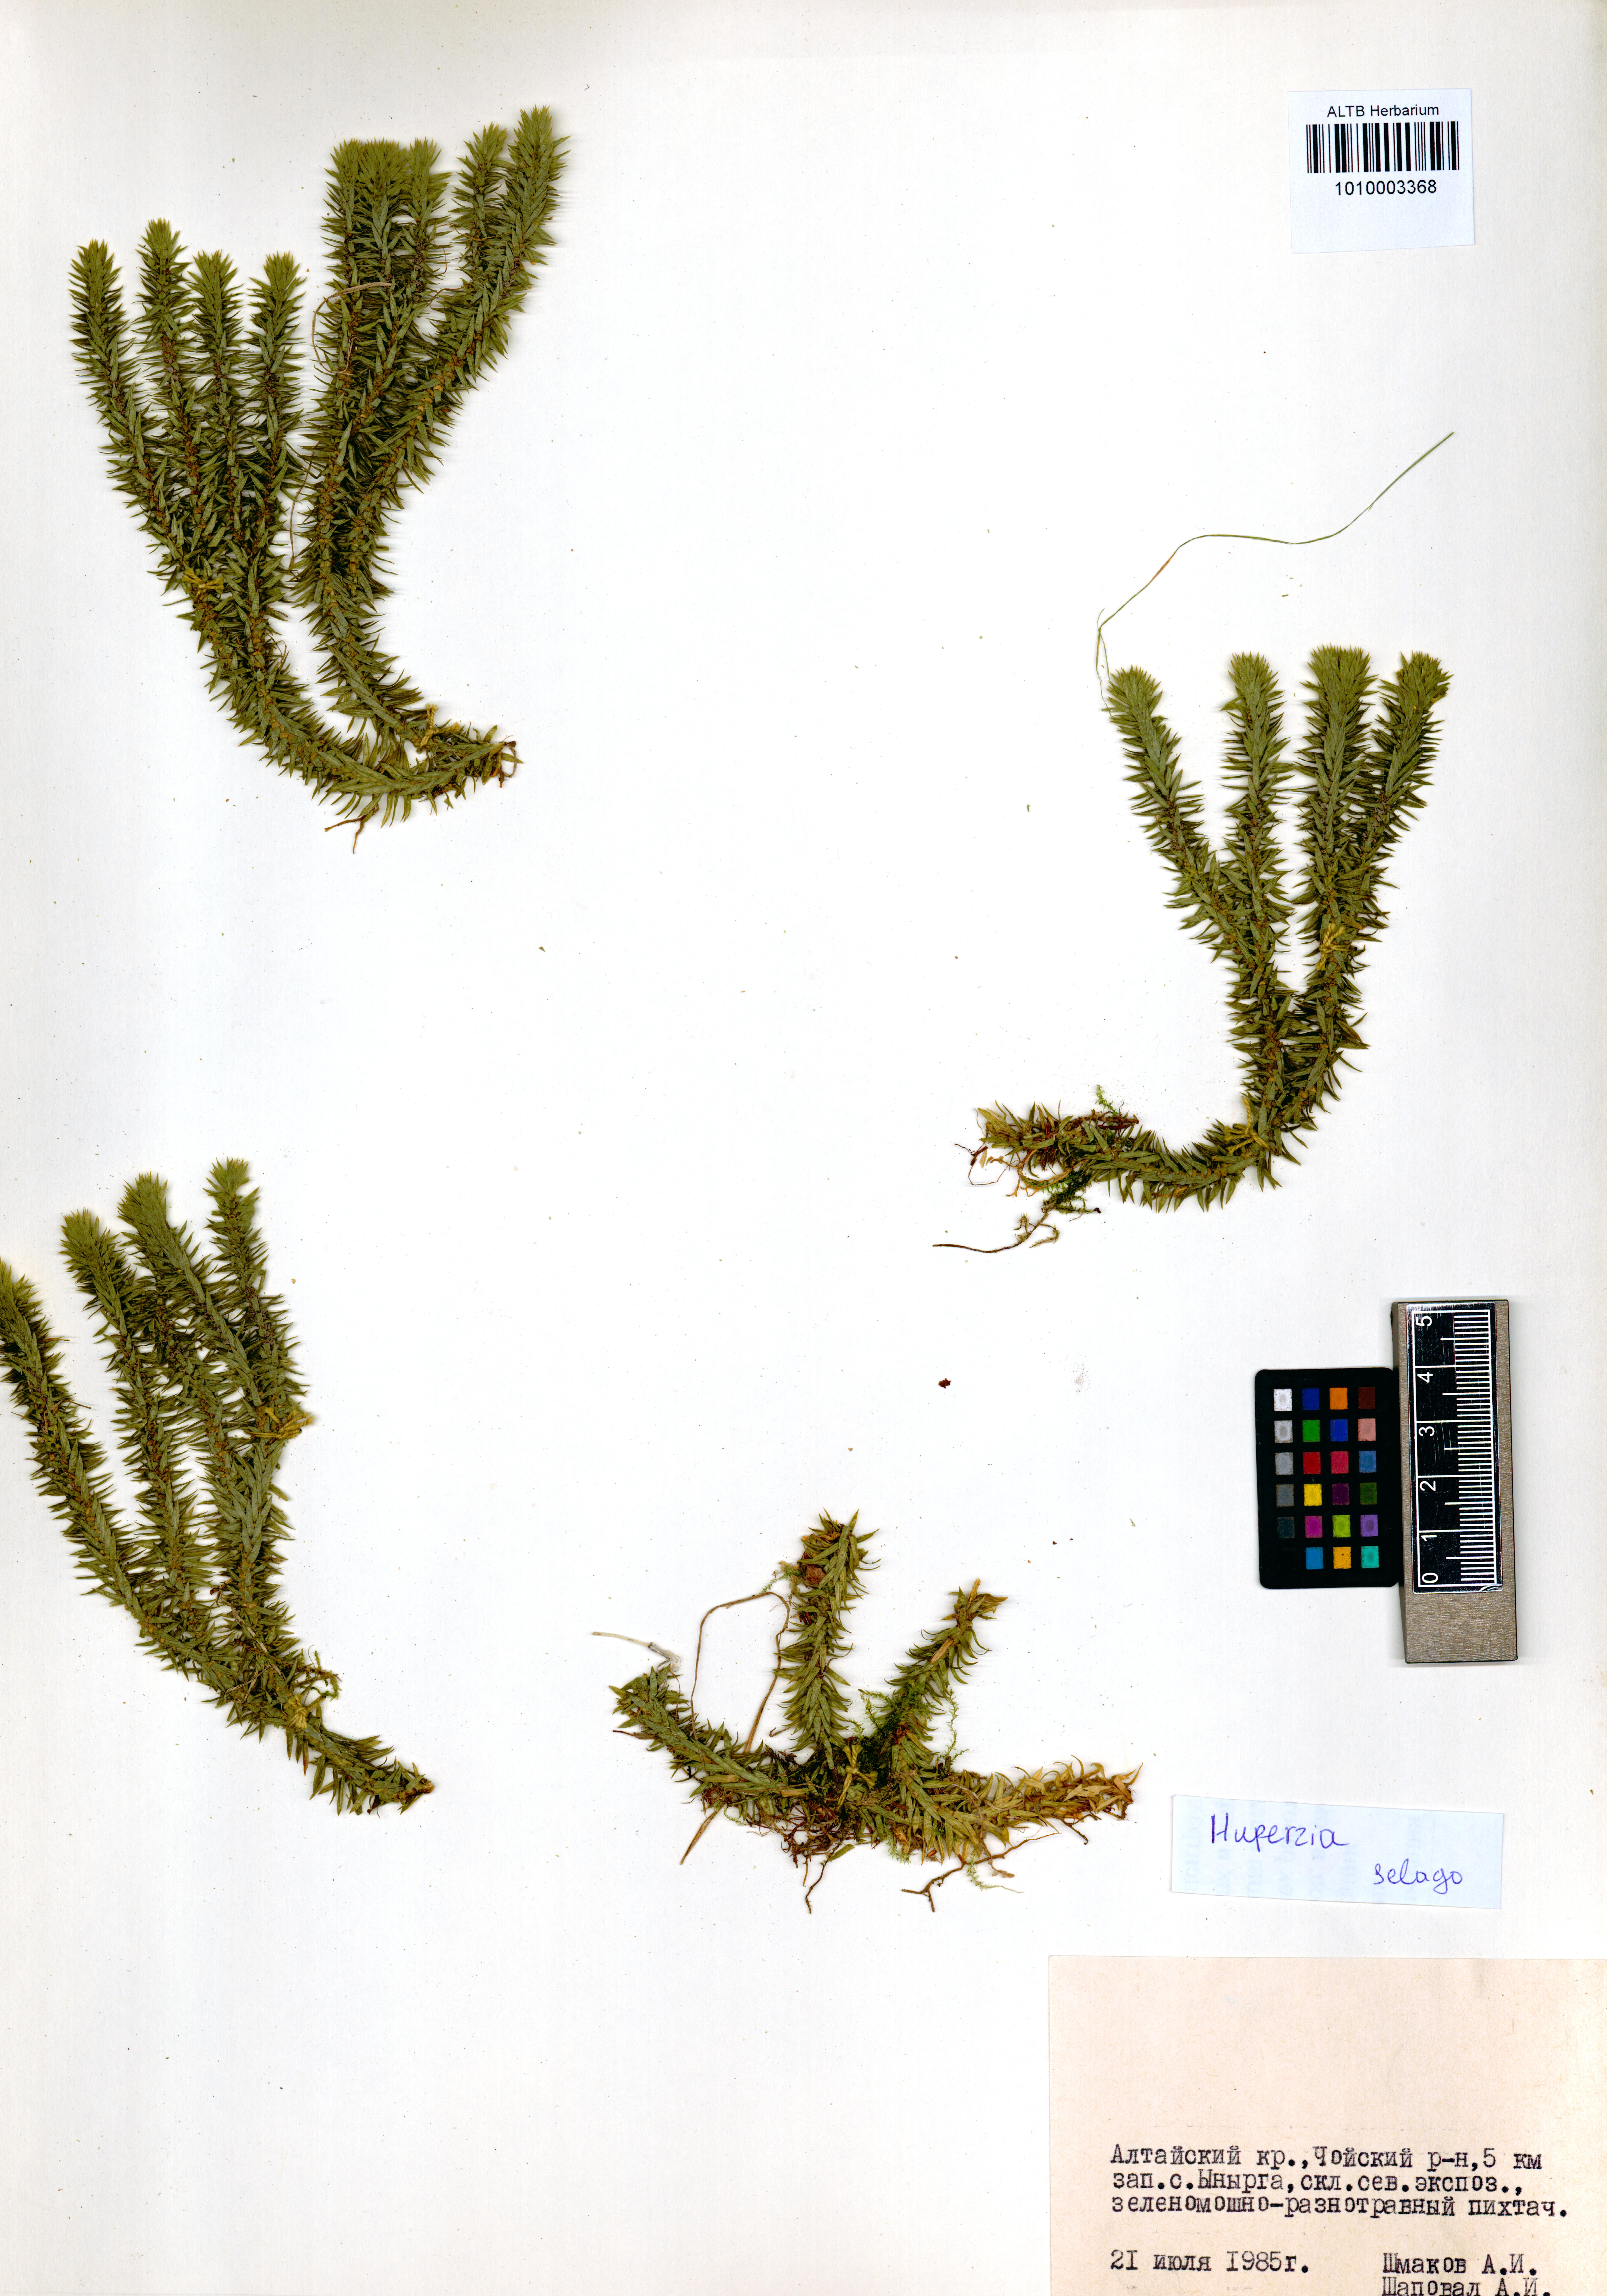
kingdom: Plantae
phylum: Tracheophyta
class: Lycopodiopsida
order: Lycopodiales
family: Lycopodiaceae
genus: Huperzia
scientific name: Huperzia selago
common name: Northern firmoss
